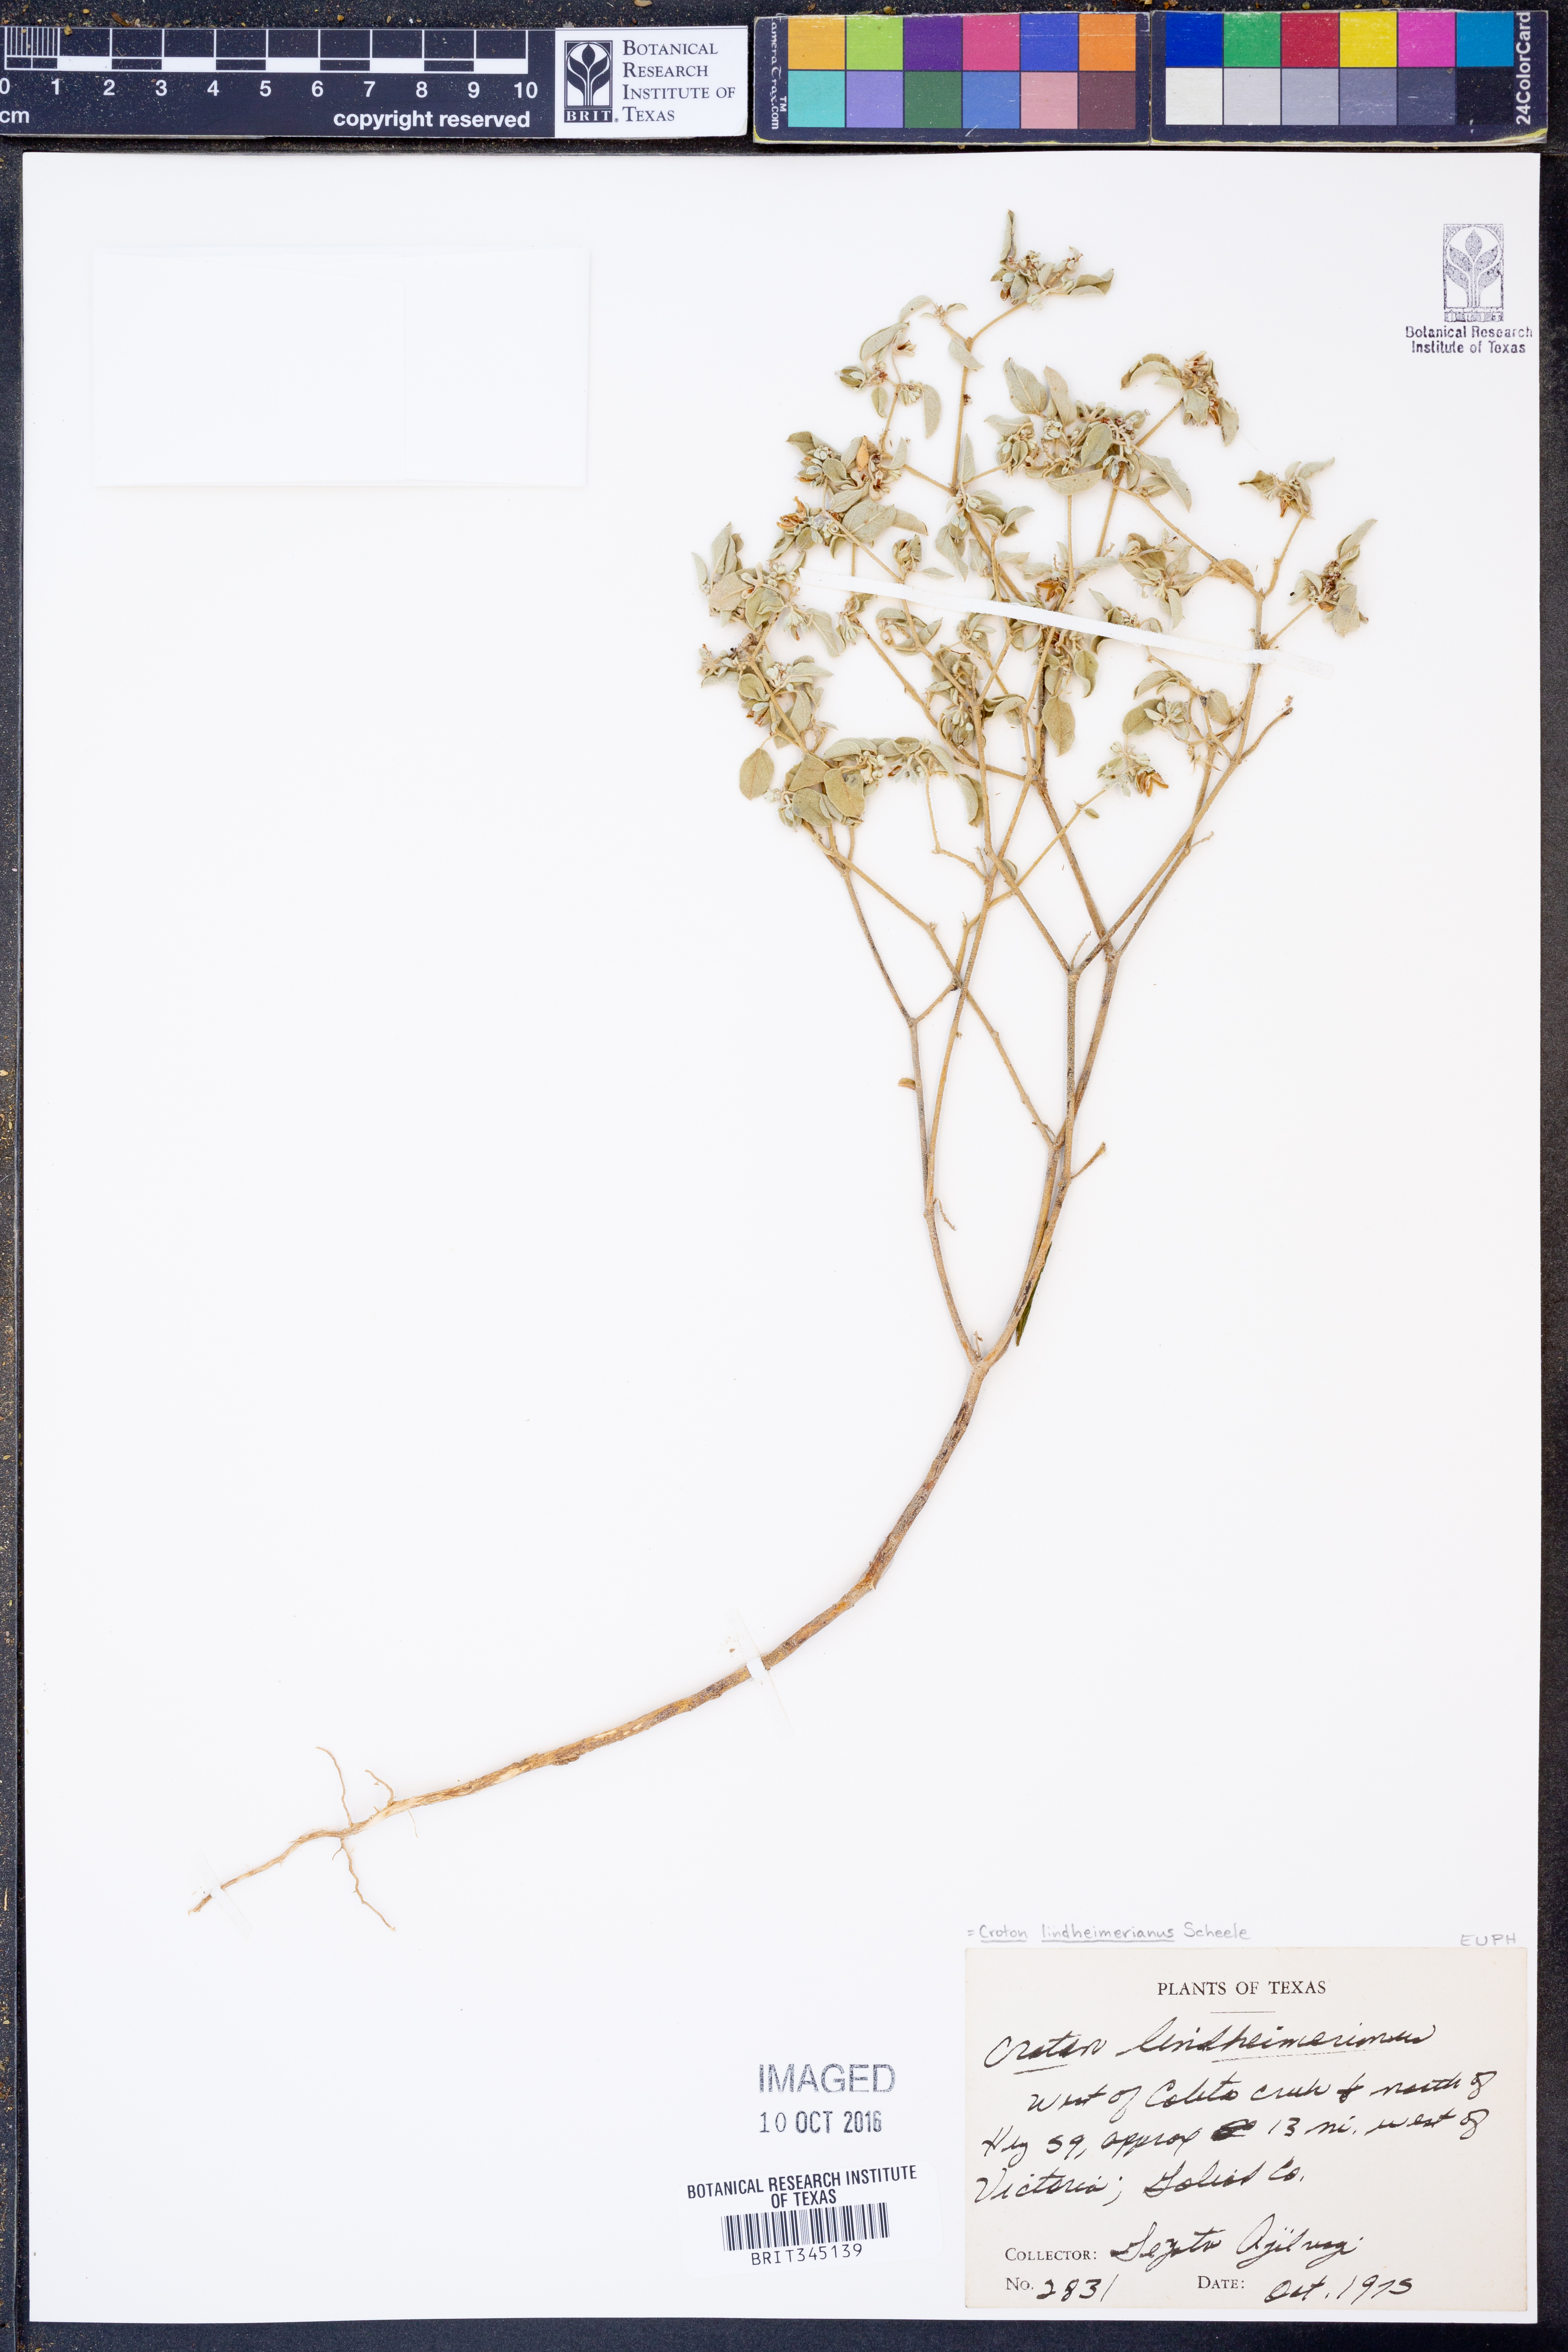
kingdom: Plantae
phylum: Tracheophyta
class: Magnoliopsida
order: Malpighiales
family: Euphorbiaceae
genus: Croton
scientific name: Croton lindheimerianus
